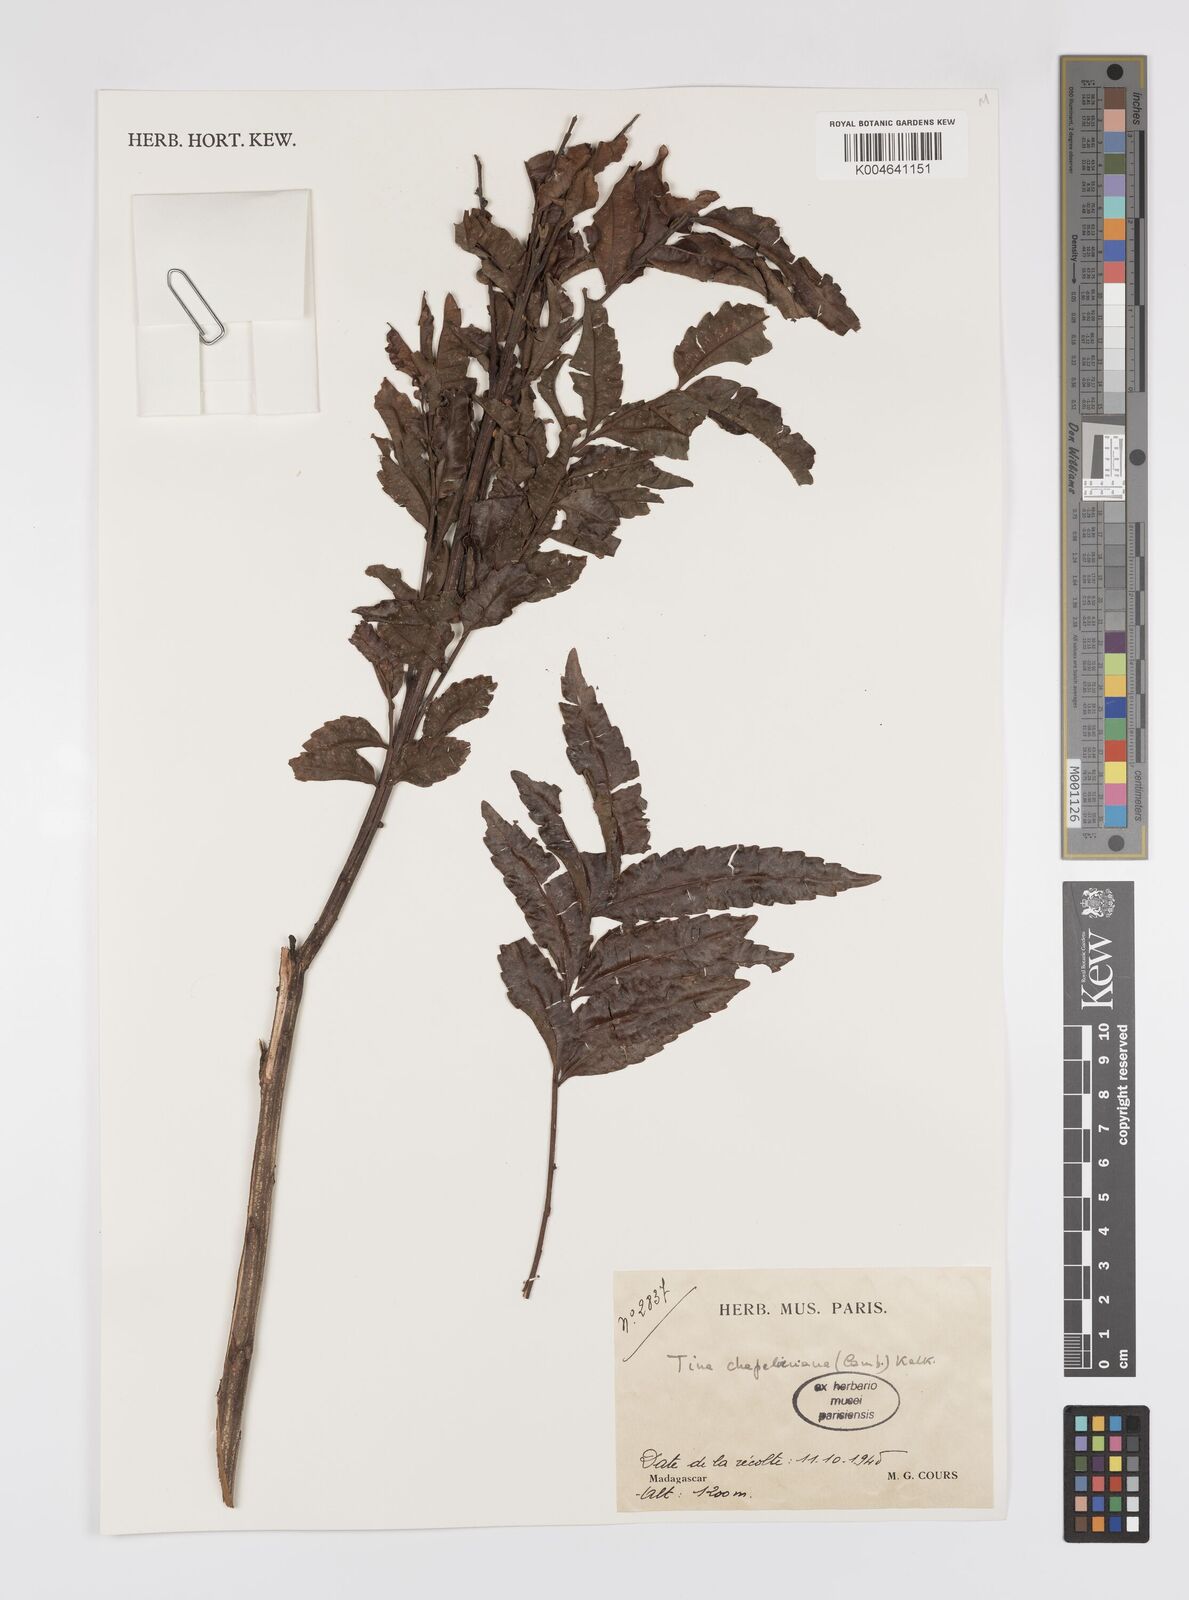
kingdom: Plantae
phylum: Tracheophyta
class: Magnoliopsida
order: Sapindales
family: Sapindaceae
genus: Tina
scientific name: Tina chapelieriana
